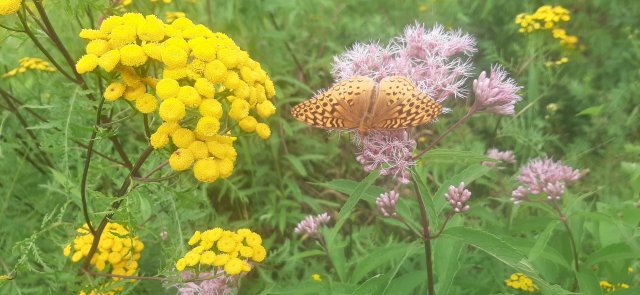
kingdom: Animalia
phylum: Arthropoda
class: Insecta
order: Lepidoptera
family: Nymphalidae
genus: Speyeria
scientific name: Speyeria cybele
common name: Great Spangled Fritillary
